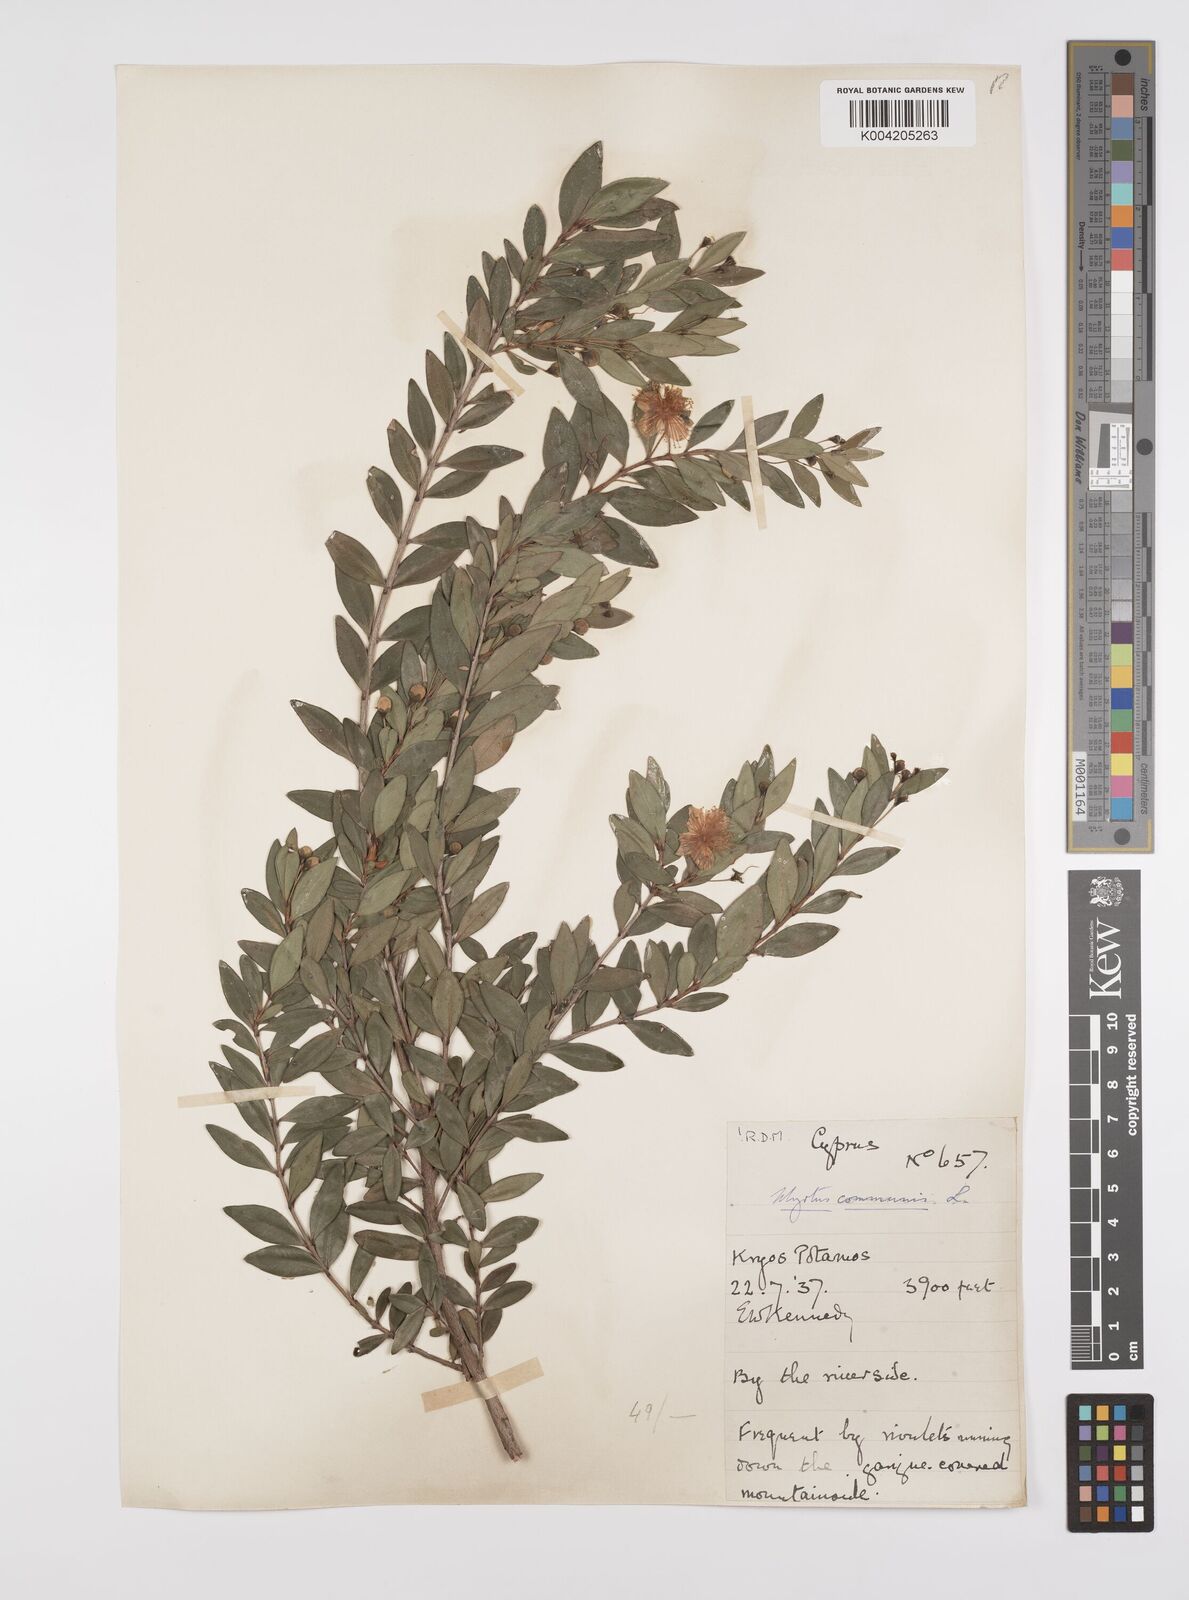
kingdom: Plantae
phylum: Tracheophyta
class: Magnoliopsida
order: Myrtales
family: Myrtaceae
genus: Myrtus
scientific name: Myrtus communis
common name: Myrtle
